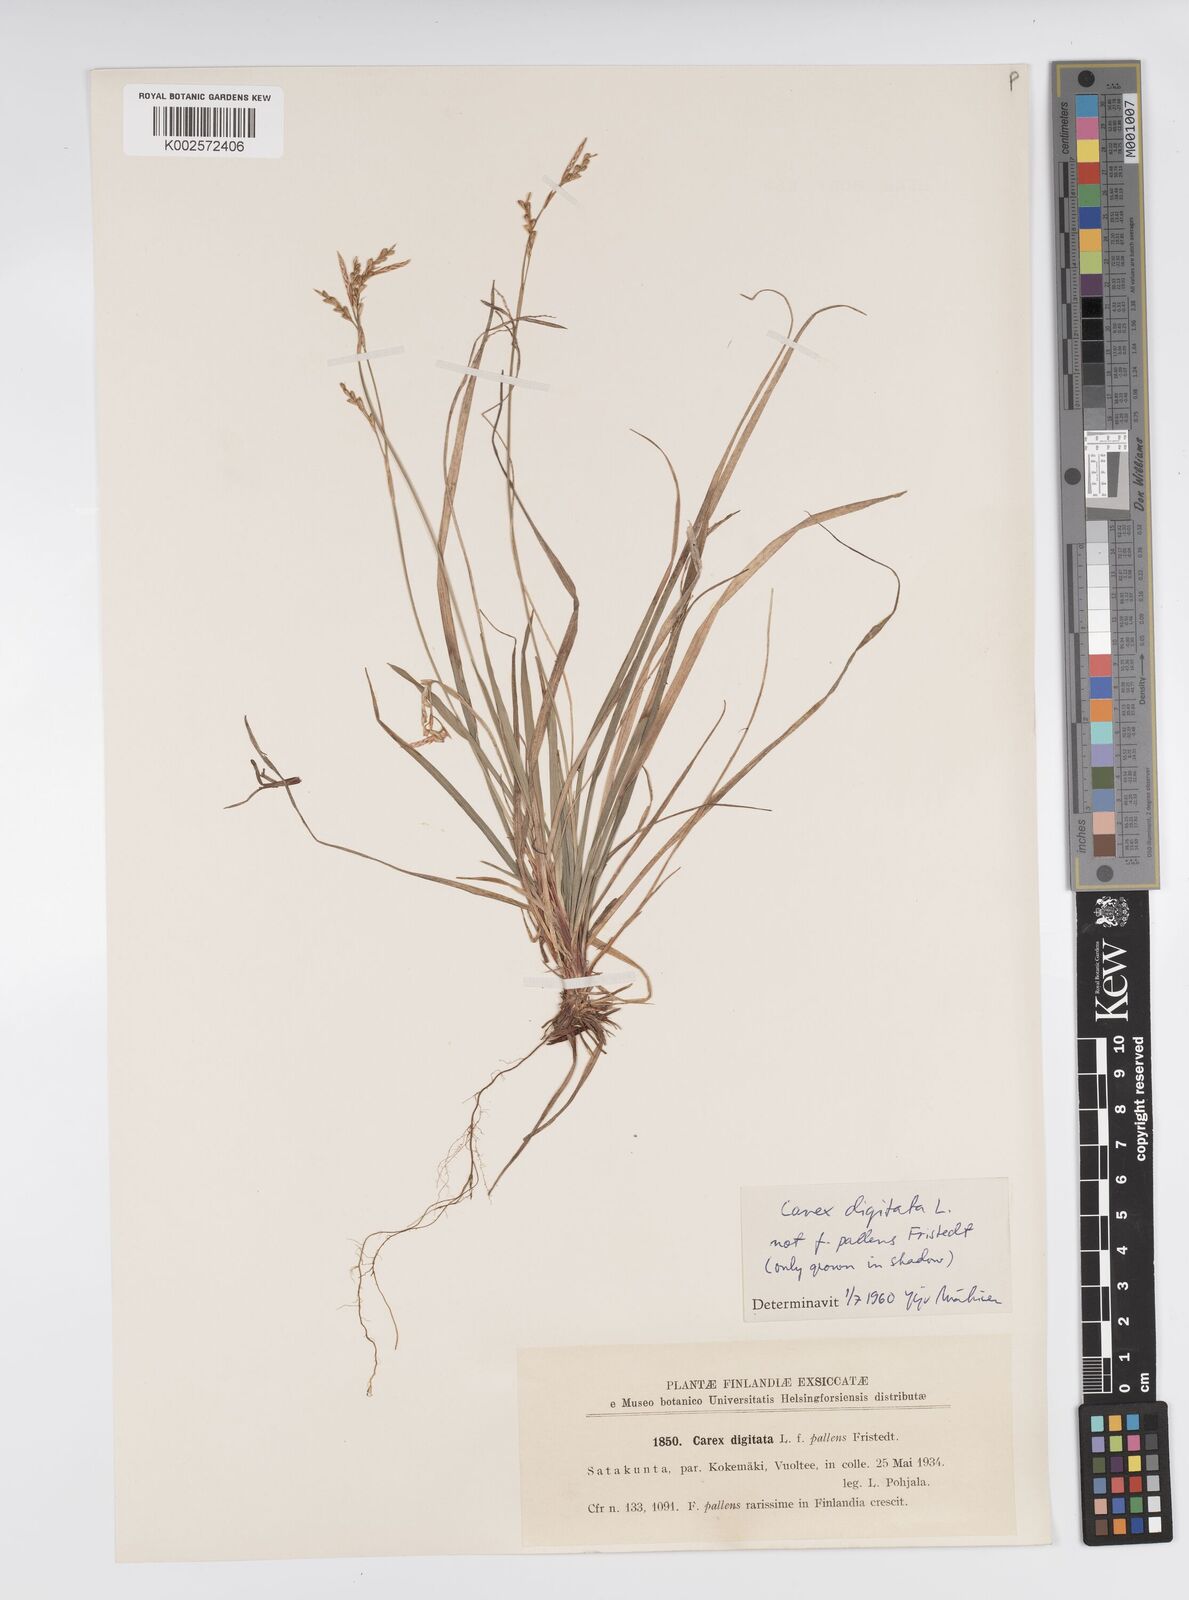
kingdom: Plantae
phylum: Tracheophyta
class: Liliopsida
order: Poales
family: Cyperaceae
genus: Carex
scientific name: Carex digitata
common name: Fingered sedge
